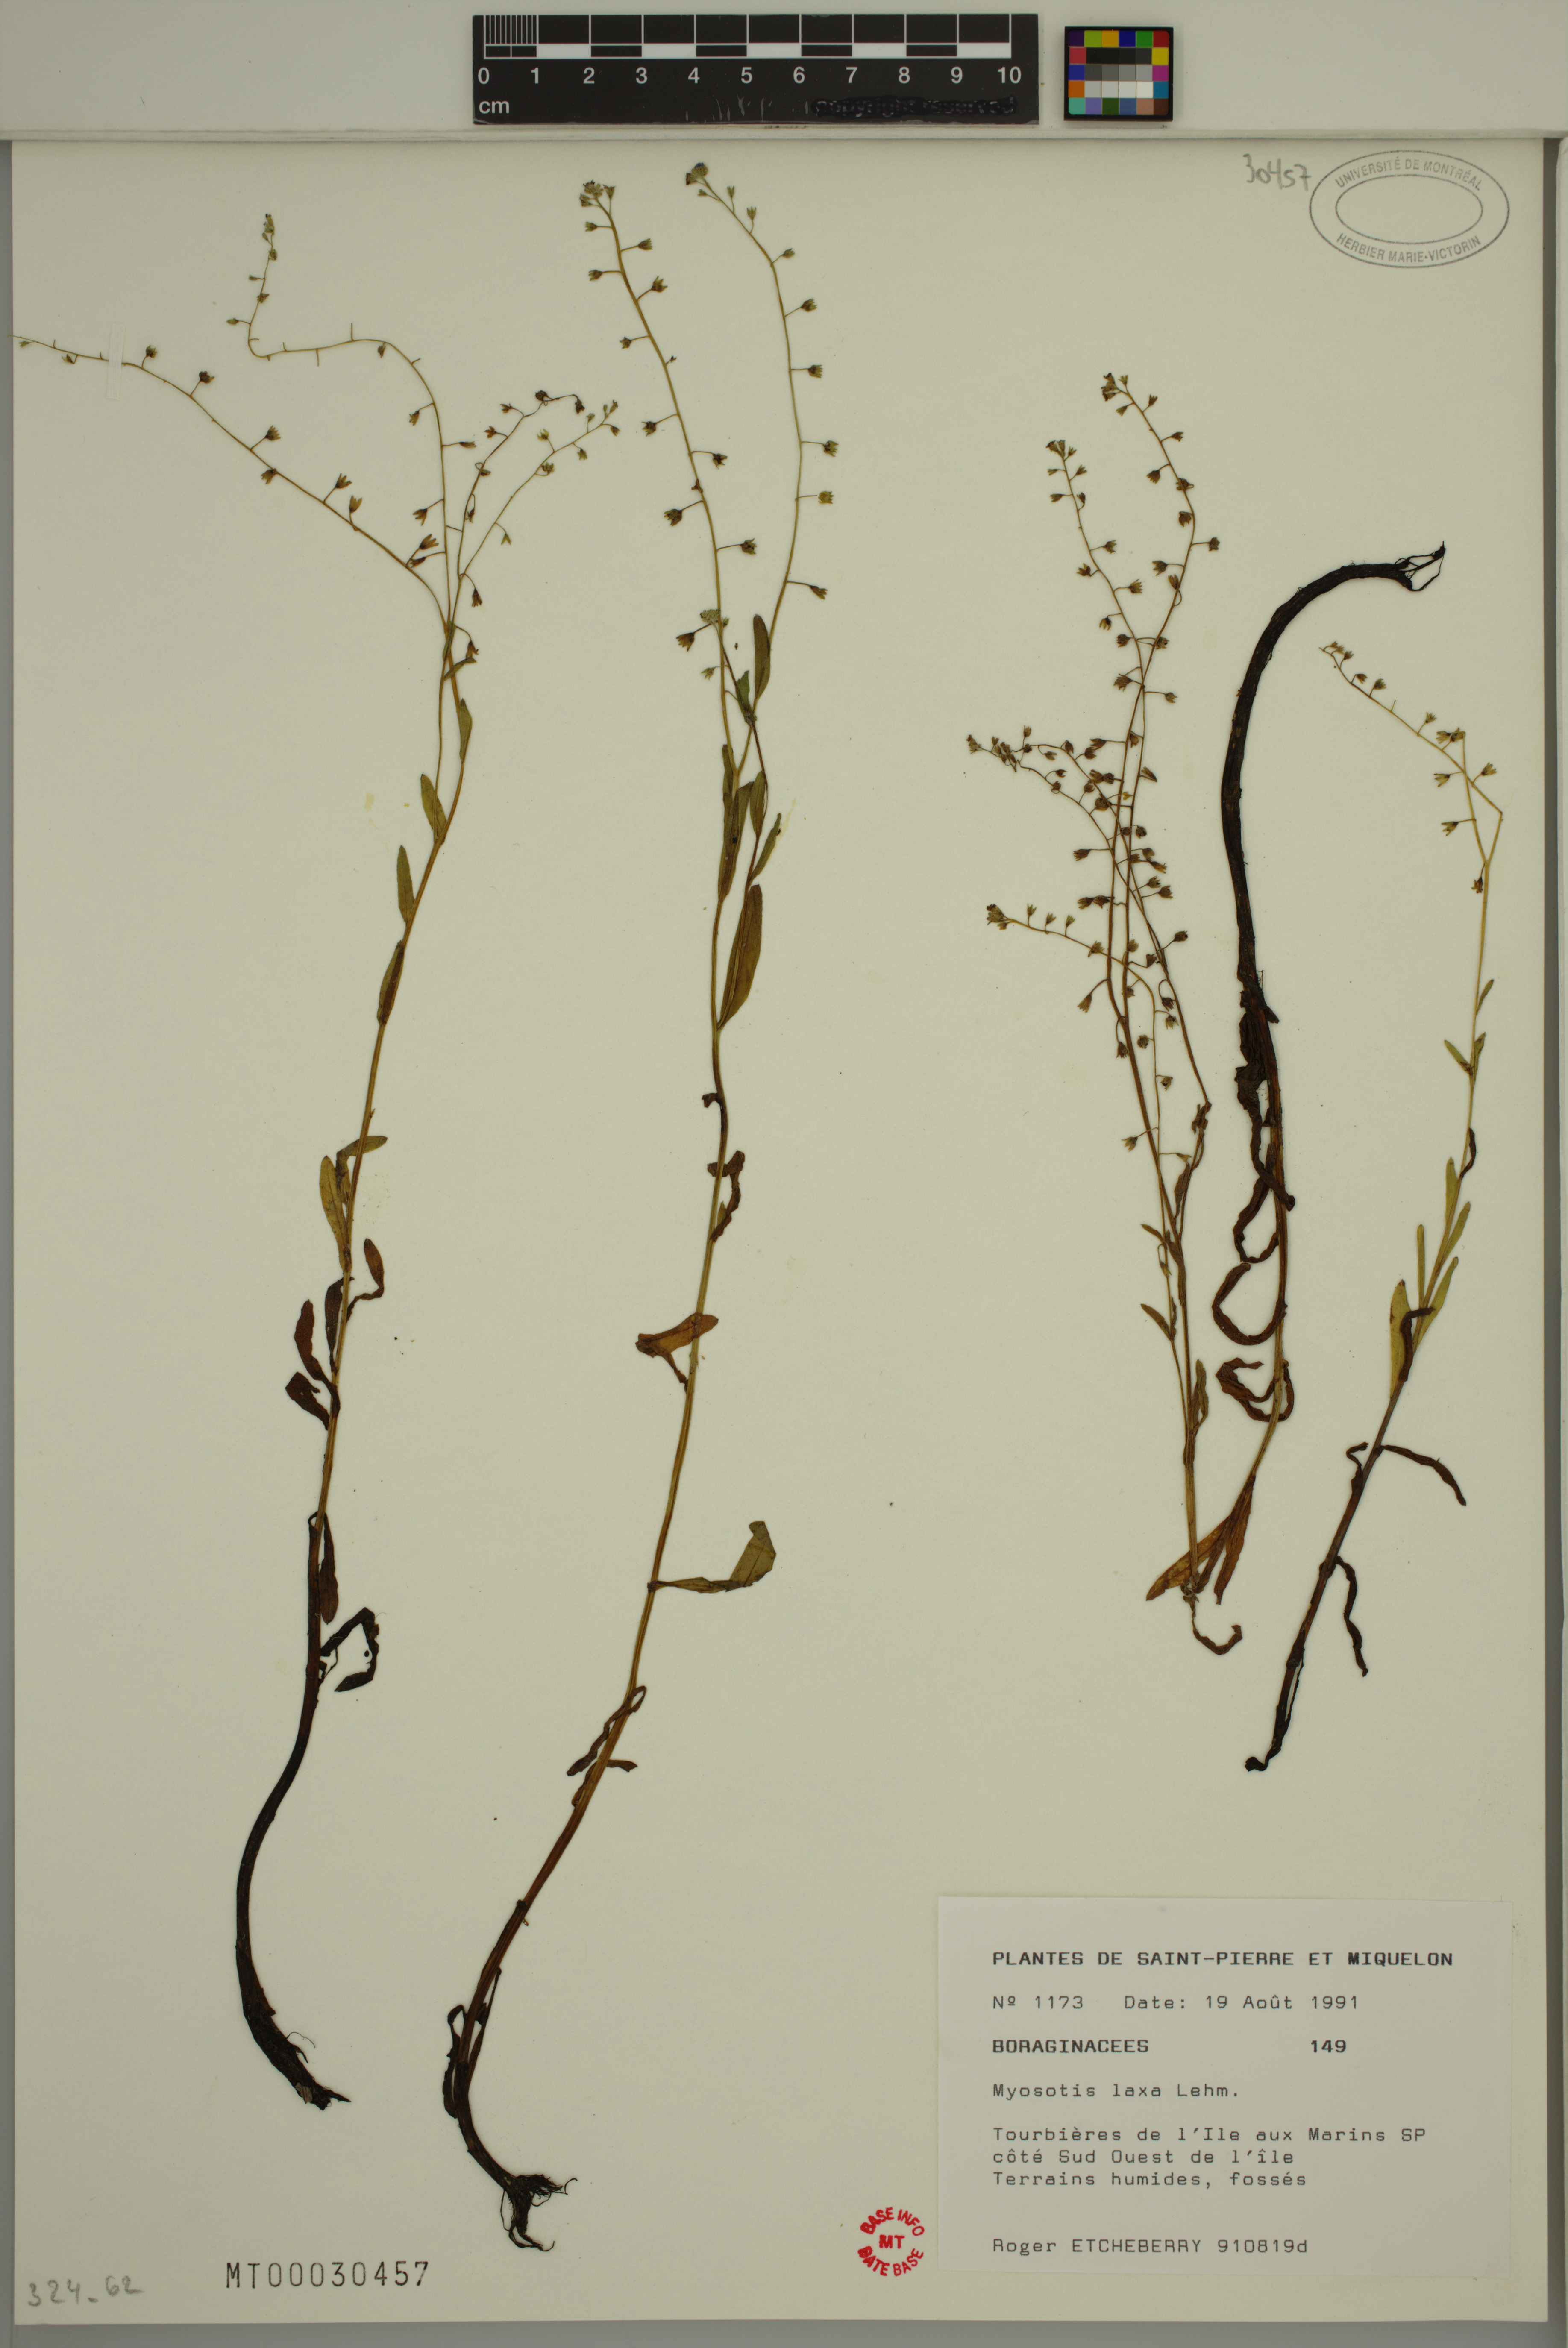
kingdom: Plantae
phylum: Tracheophyta
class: Magnoliopsida
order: Boraginales
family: Boraginaceae
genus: Myosotis
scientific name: Myosotis laxa
